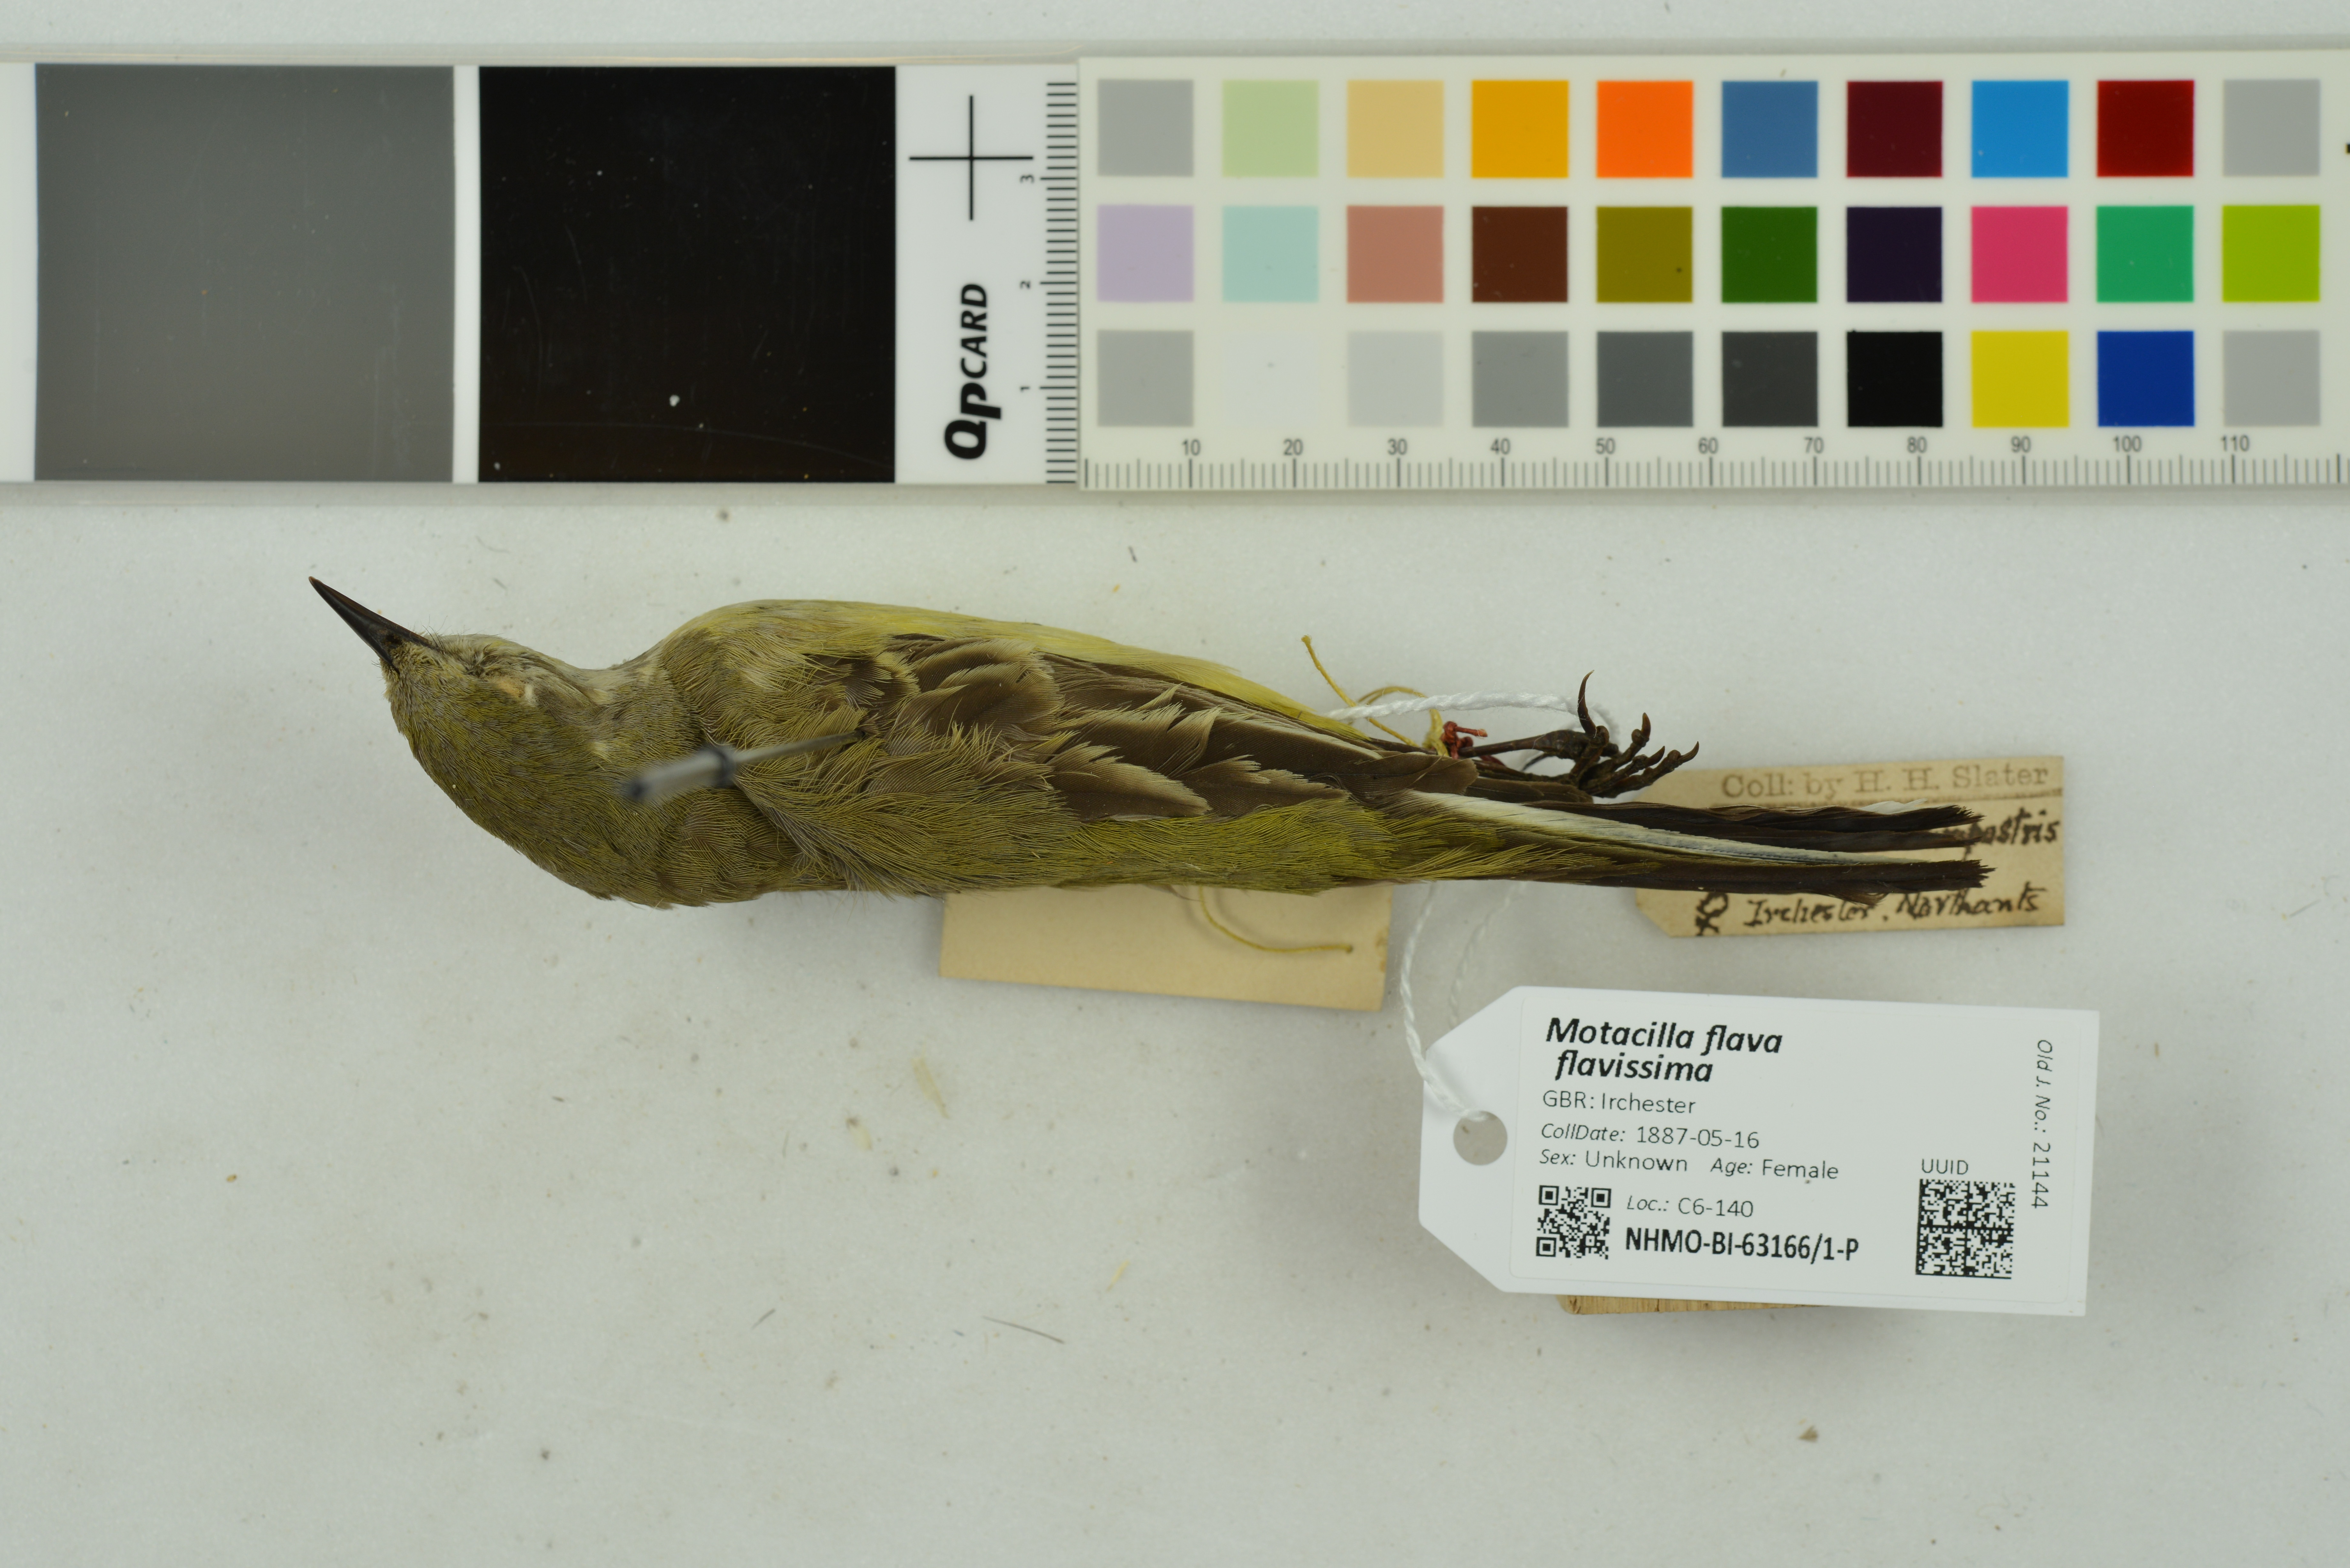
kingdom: Animalia
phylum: Chordata
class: Aves
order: Passeriformes
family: Motacillidae
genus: Motacilla
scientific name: Motacilla flava
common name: Western yellow wagtail
